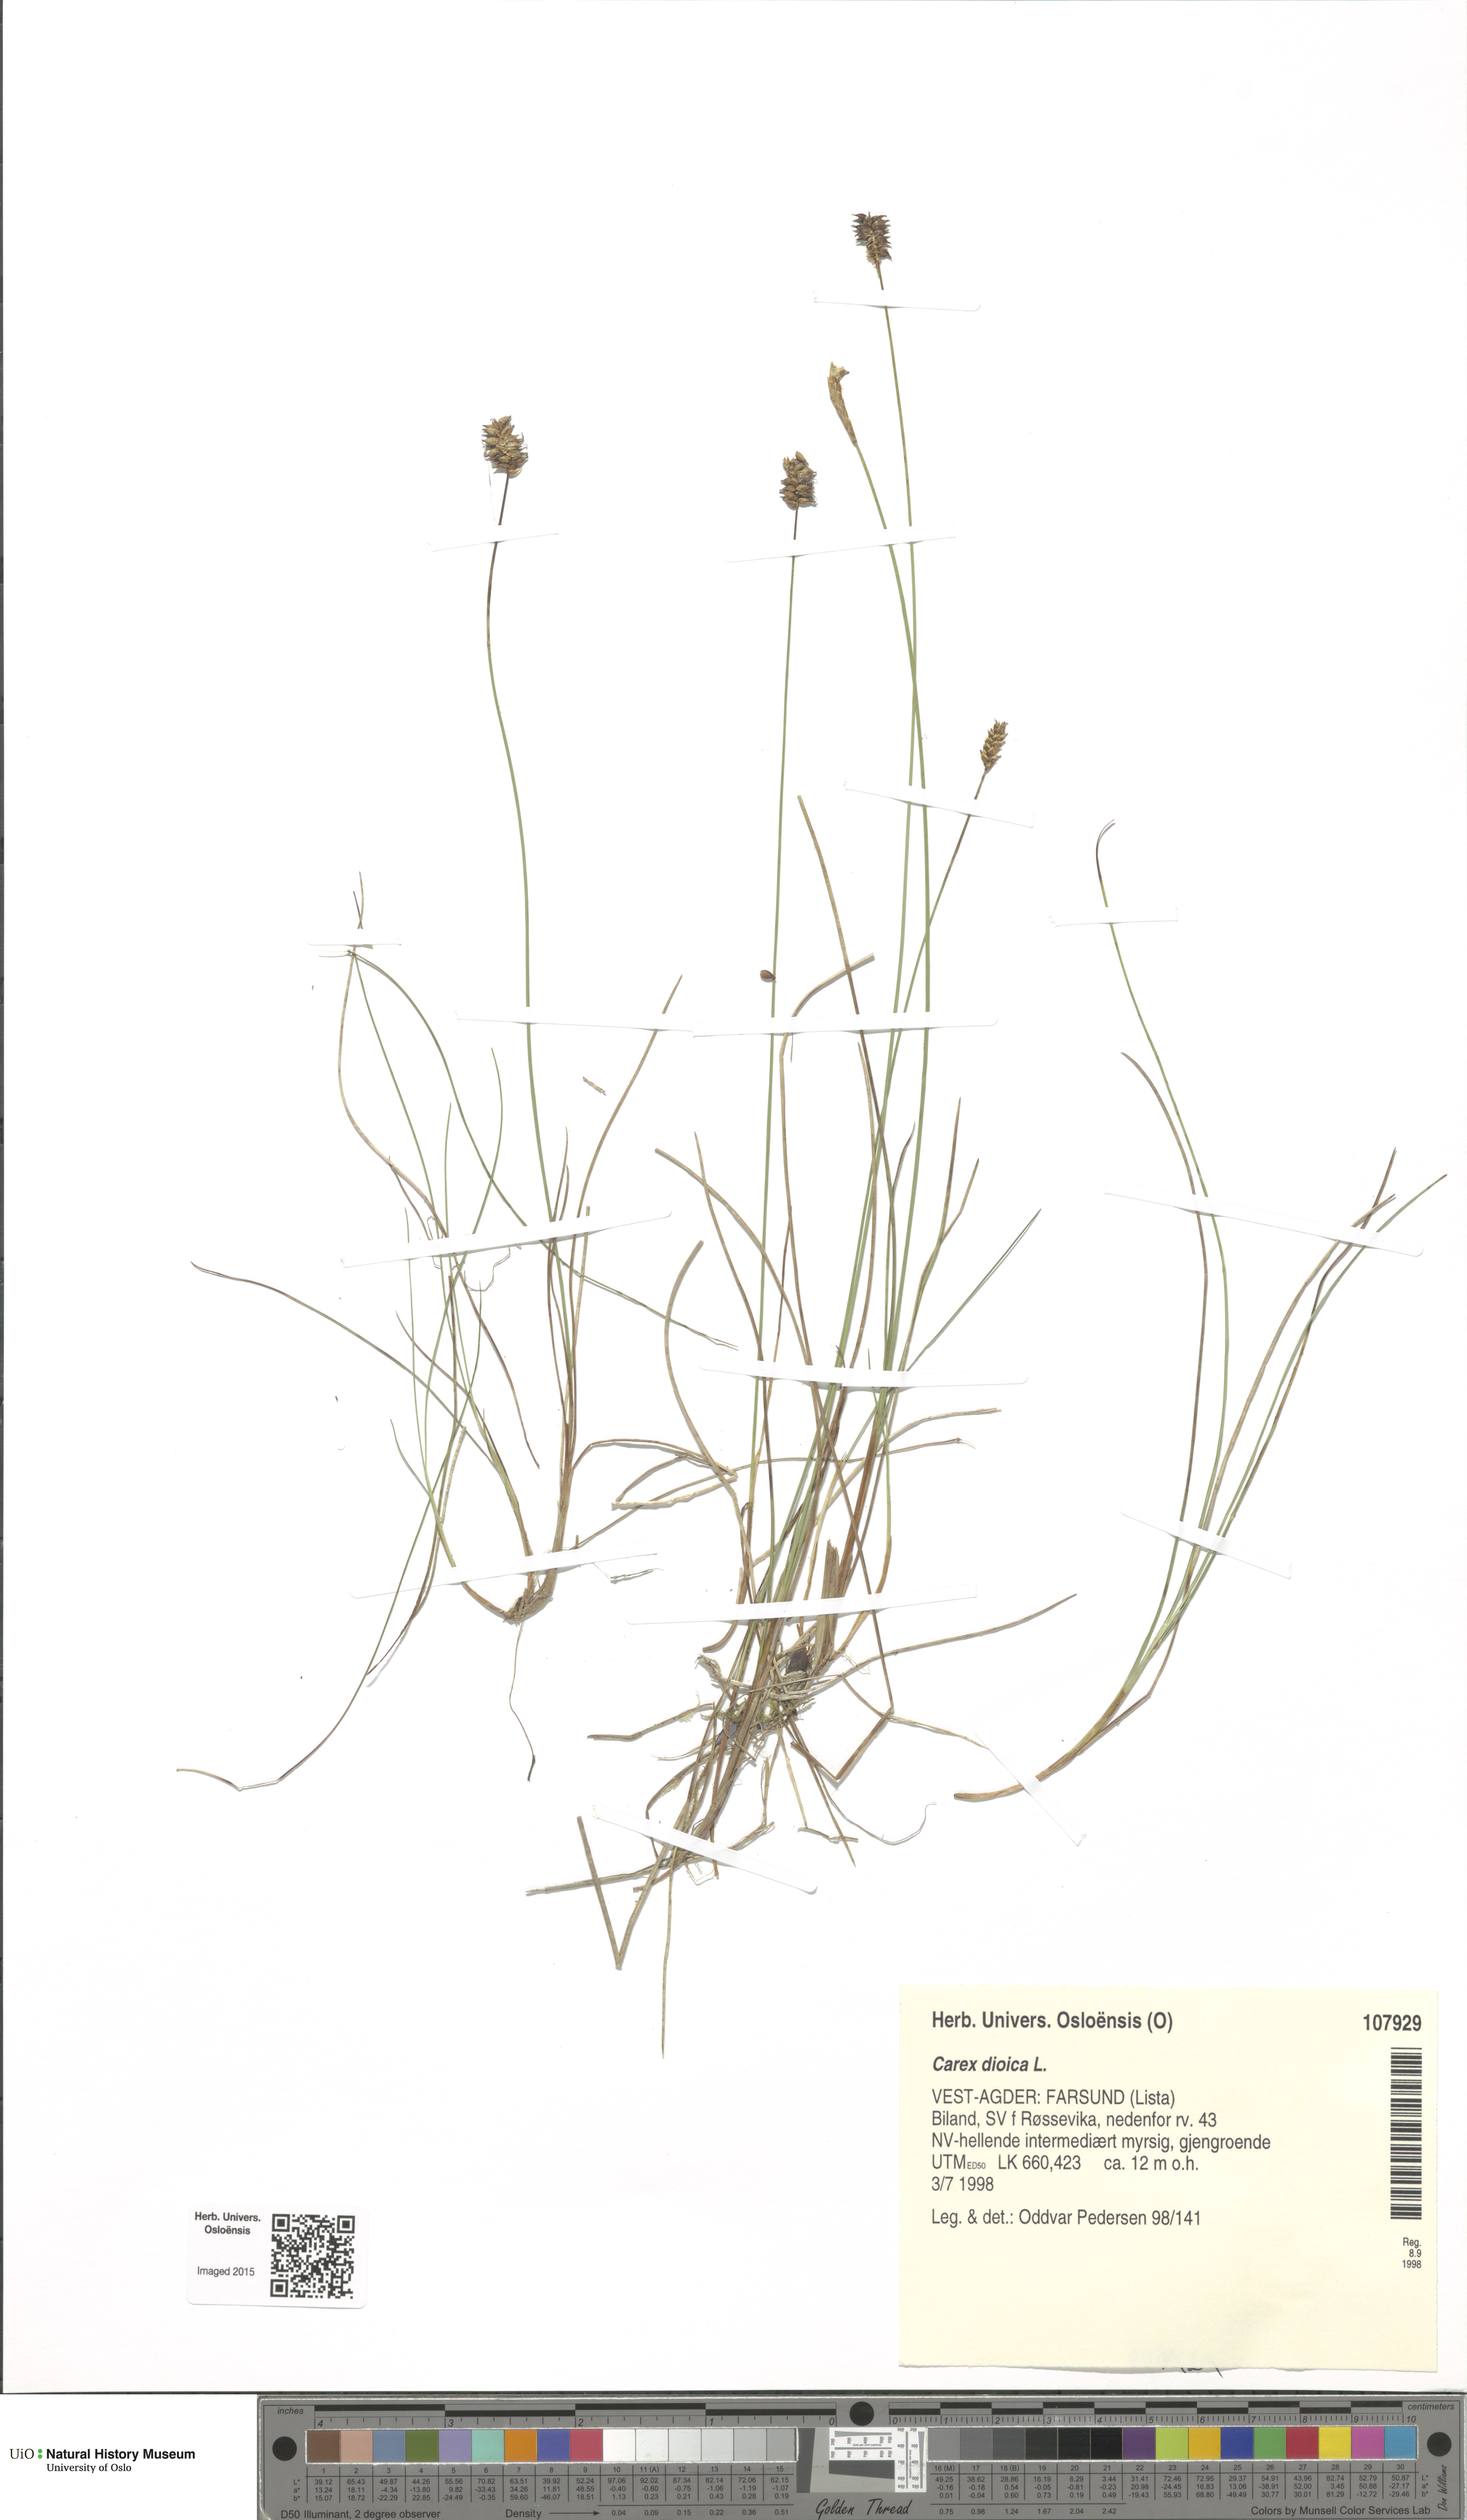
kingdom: Plantae
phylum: Tracheophyta
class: Liliopsida
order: Poales
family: Cyperaceae
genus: Carex
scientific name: Carex dioica
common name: Dioecious sedge
